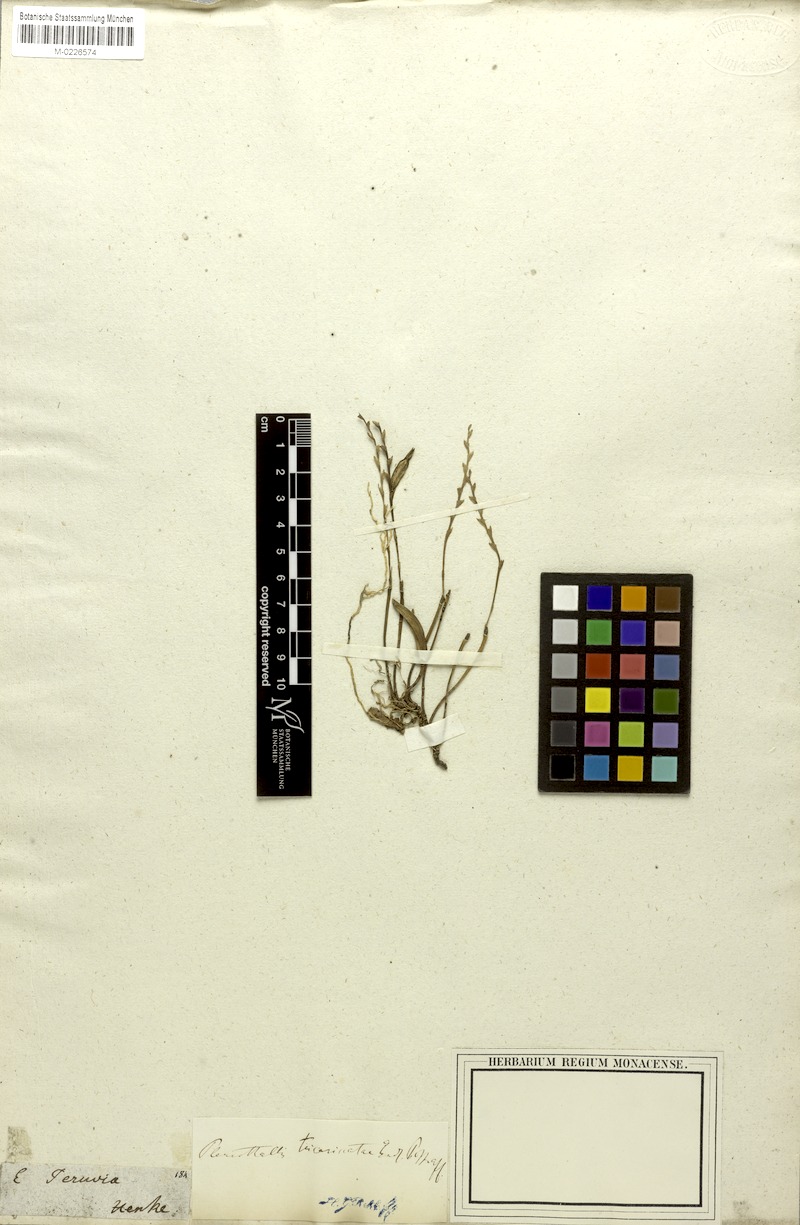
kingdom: Plantae
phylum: Tracheophyta
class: Liliopsida
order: Asparagales
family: Orchidaceae
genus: Acianthera
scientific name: Acianthera tricarinata
